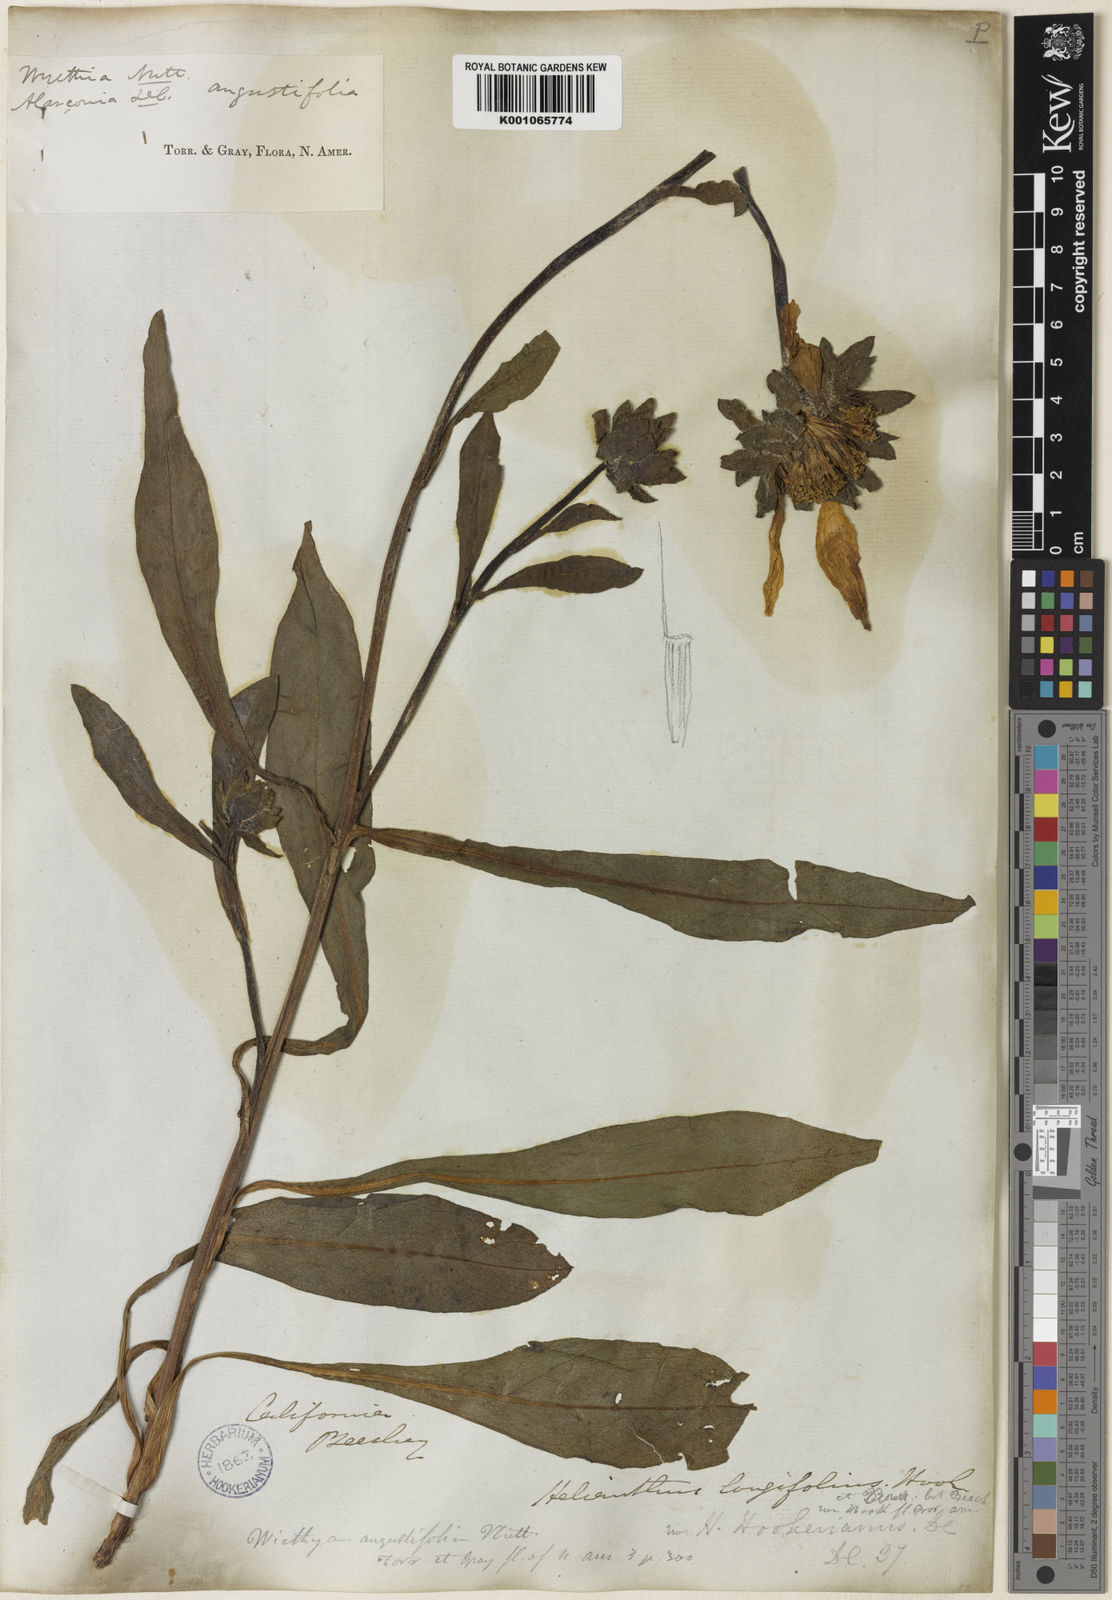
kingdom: Plantae
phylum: Tracheophyta
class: Magnoliopsida
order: Asterales
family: Asteraceae
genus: Wyethia
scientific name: Wyethia angustifolia
